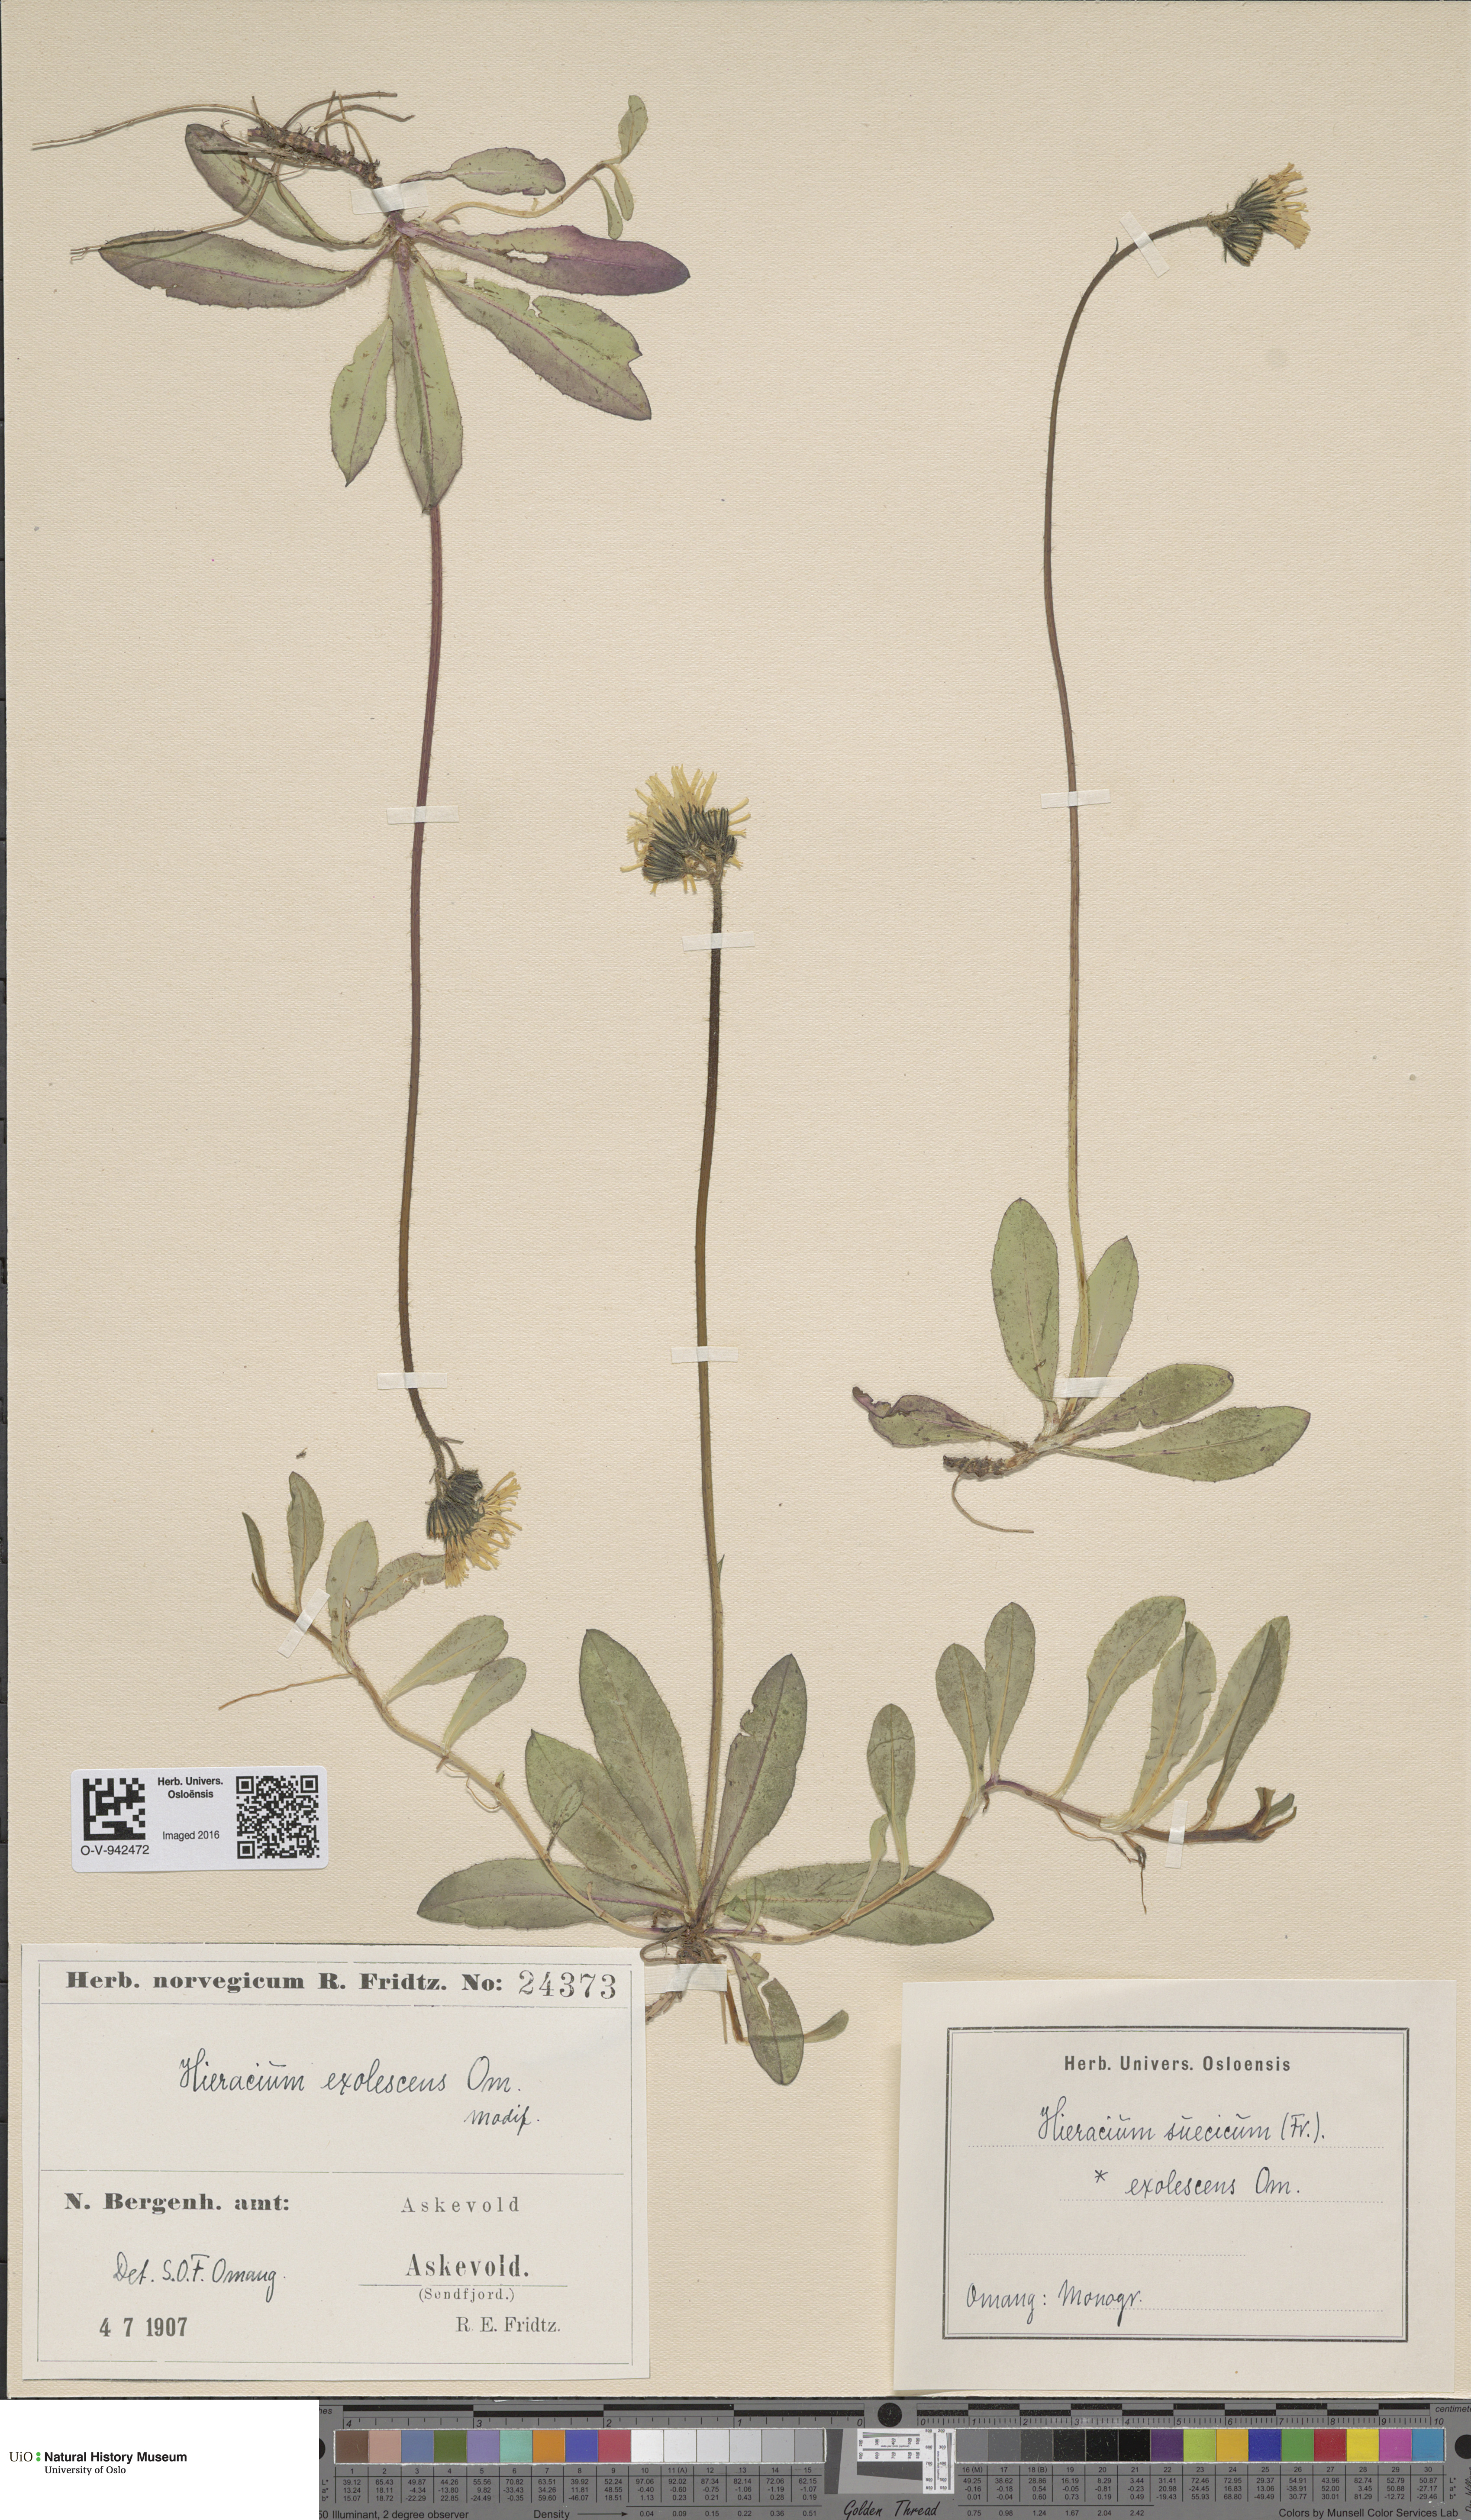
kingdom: Plantae
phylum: Tracheophyta
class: Magnoliopsida
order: Asterales
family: Asteraceae
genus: Pilosella
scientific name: Pilosella dubia
